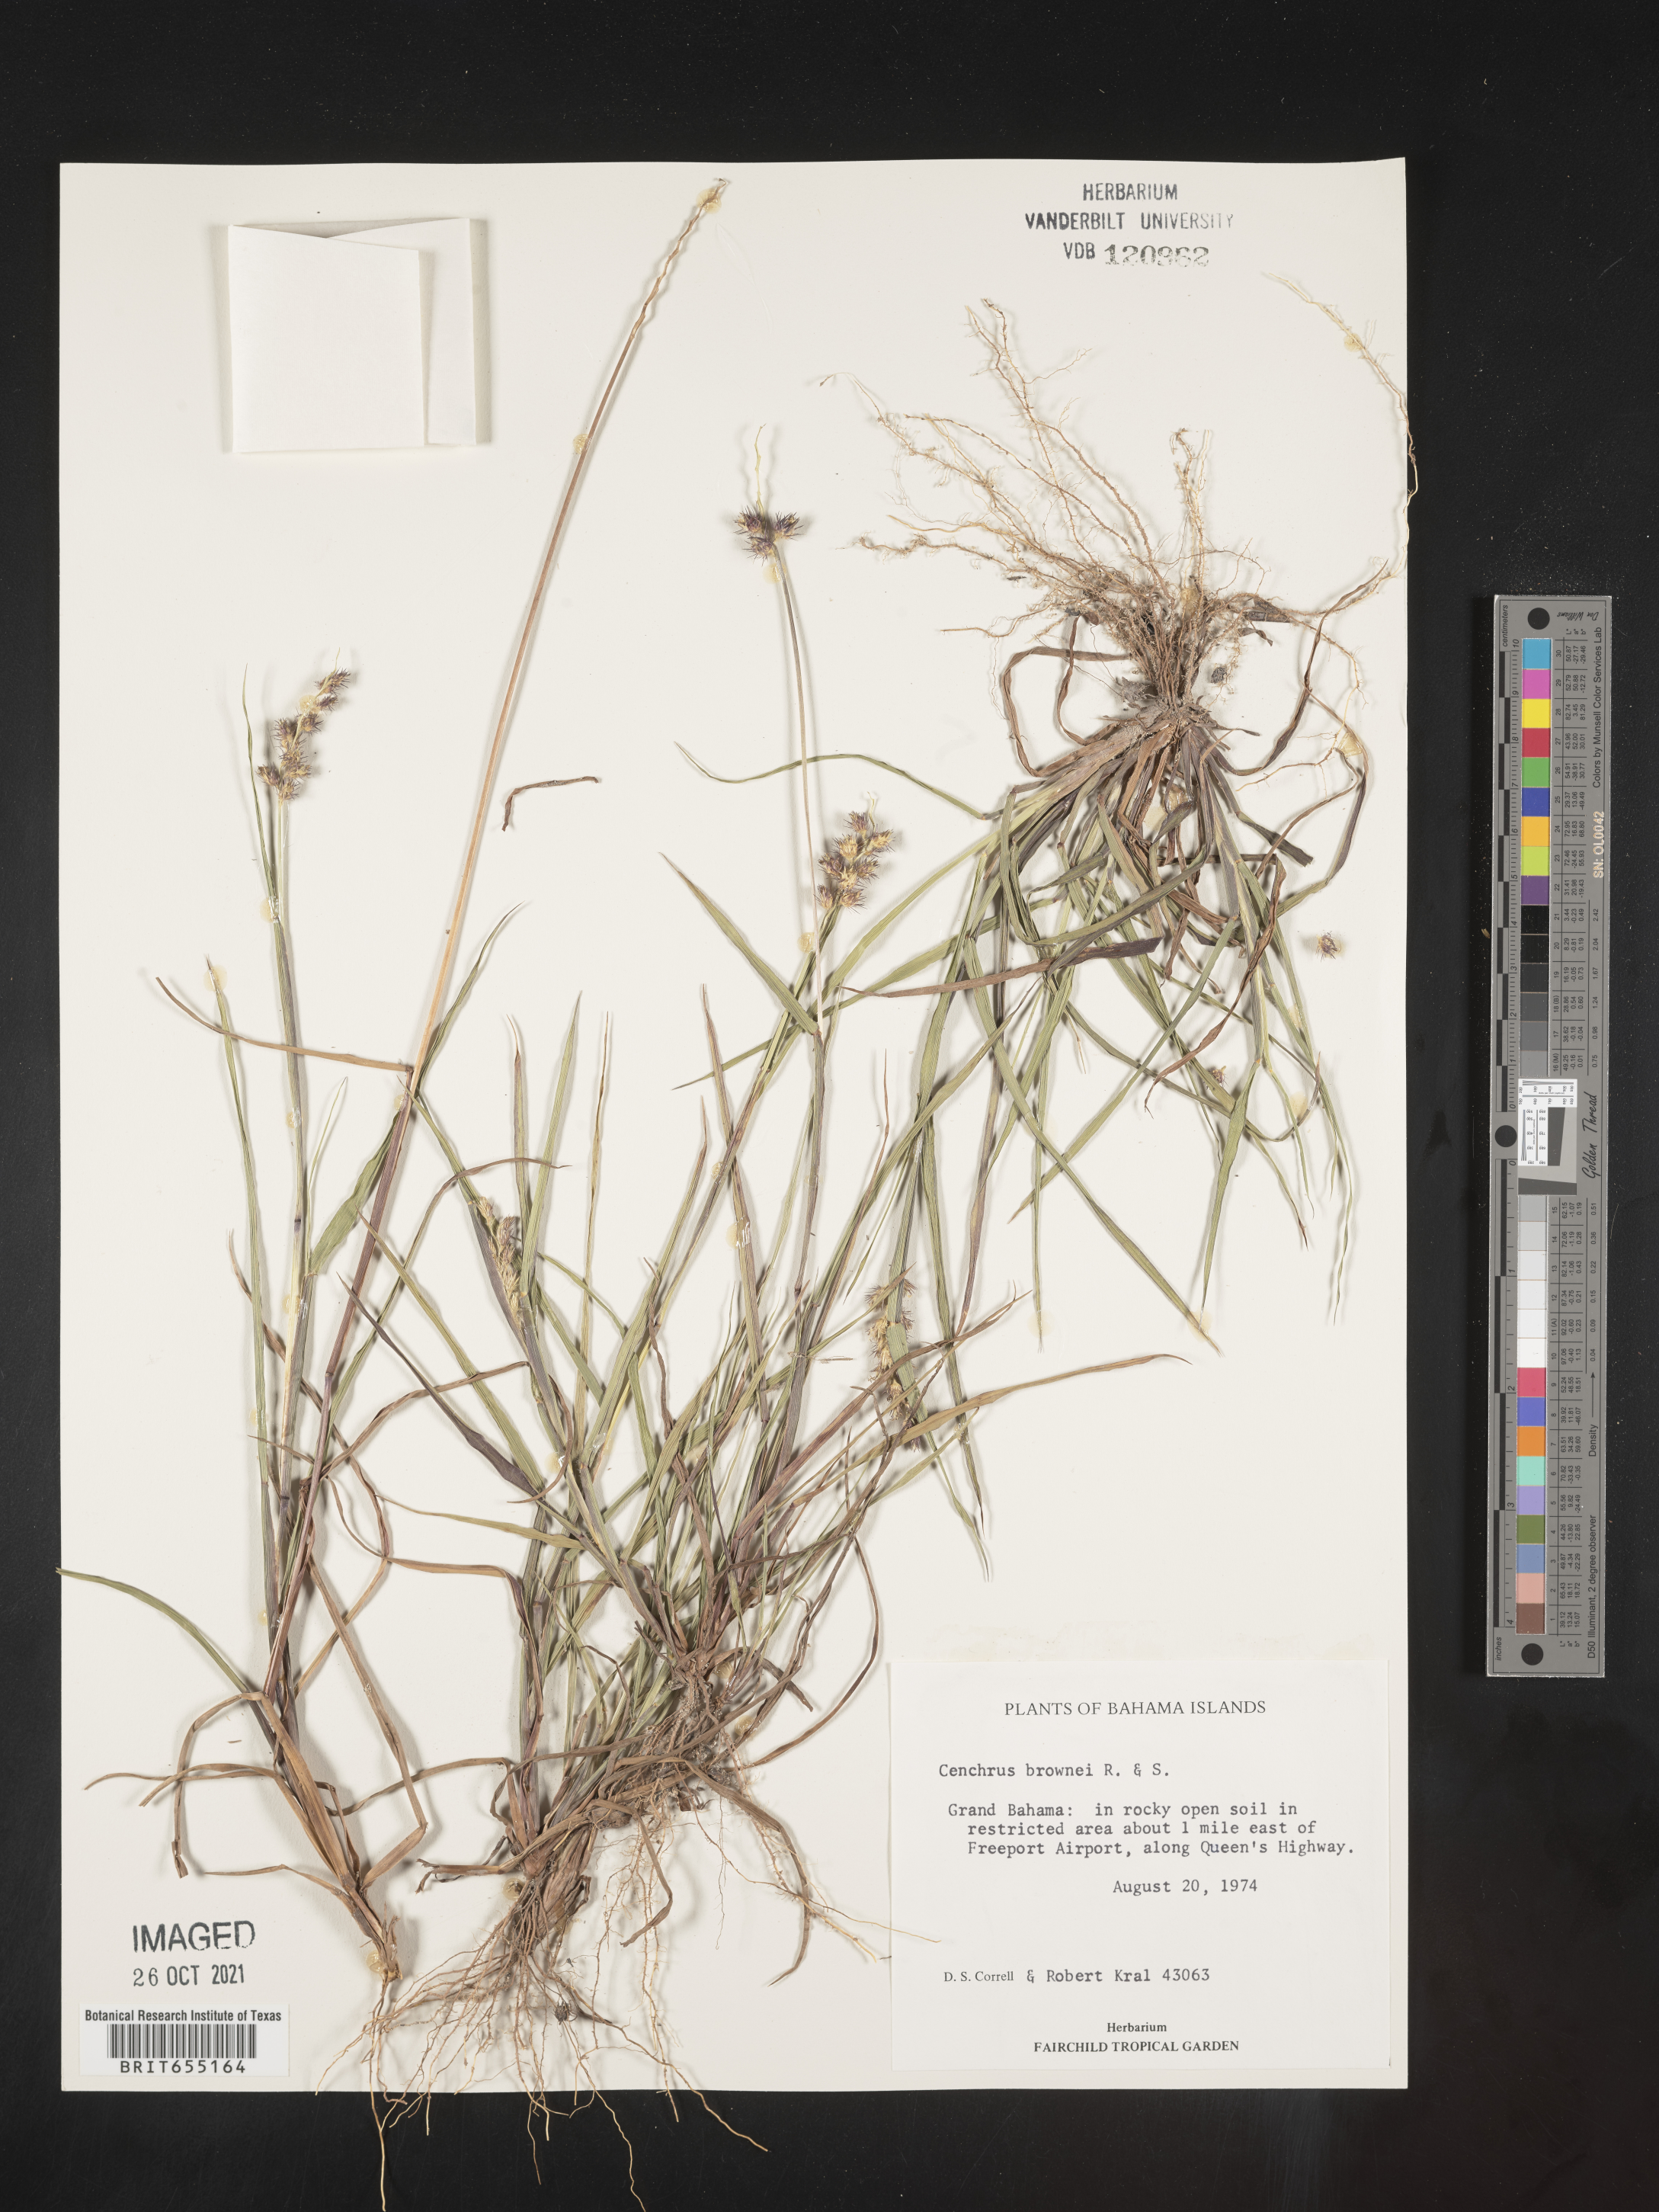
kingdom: Plantae
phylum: Tracheophyta
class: Liliopsida
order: Poales
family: Poaceae
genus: Cenchrus
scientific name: Cenchrus
